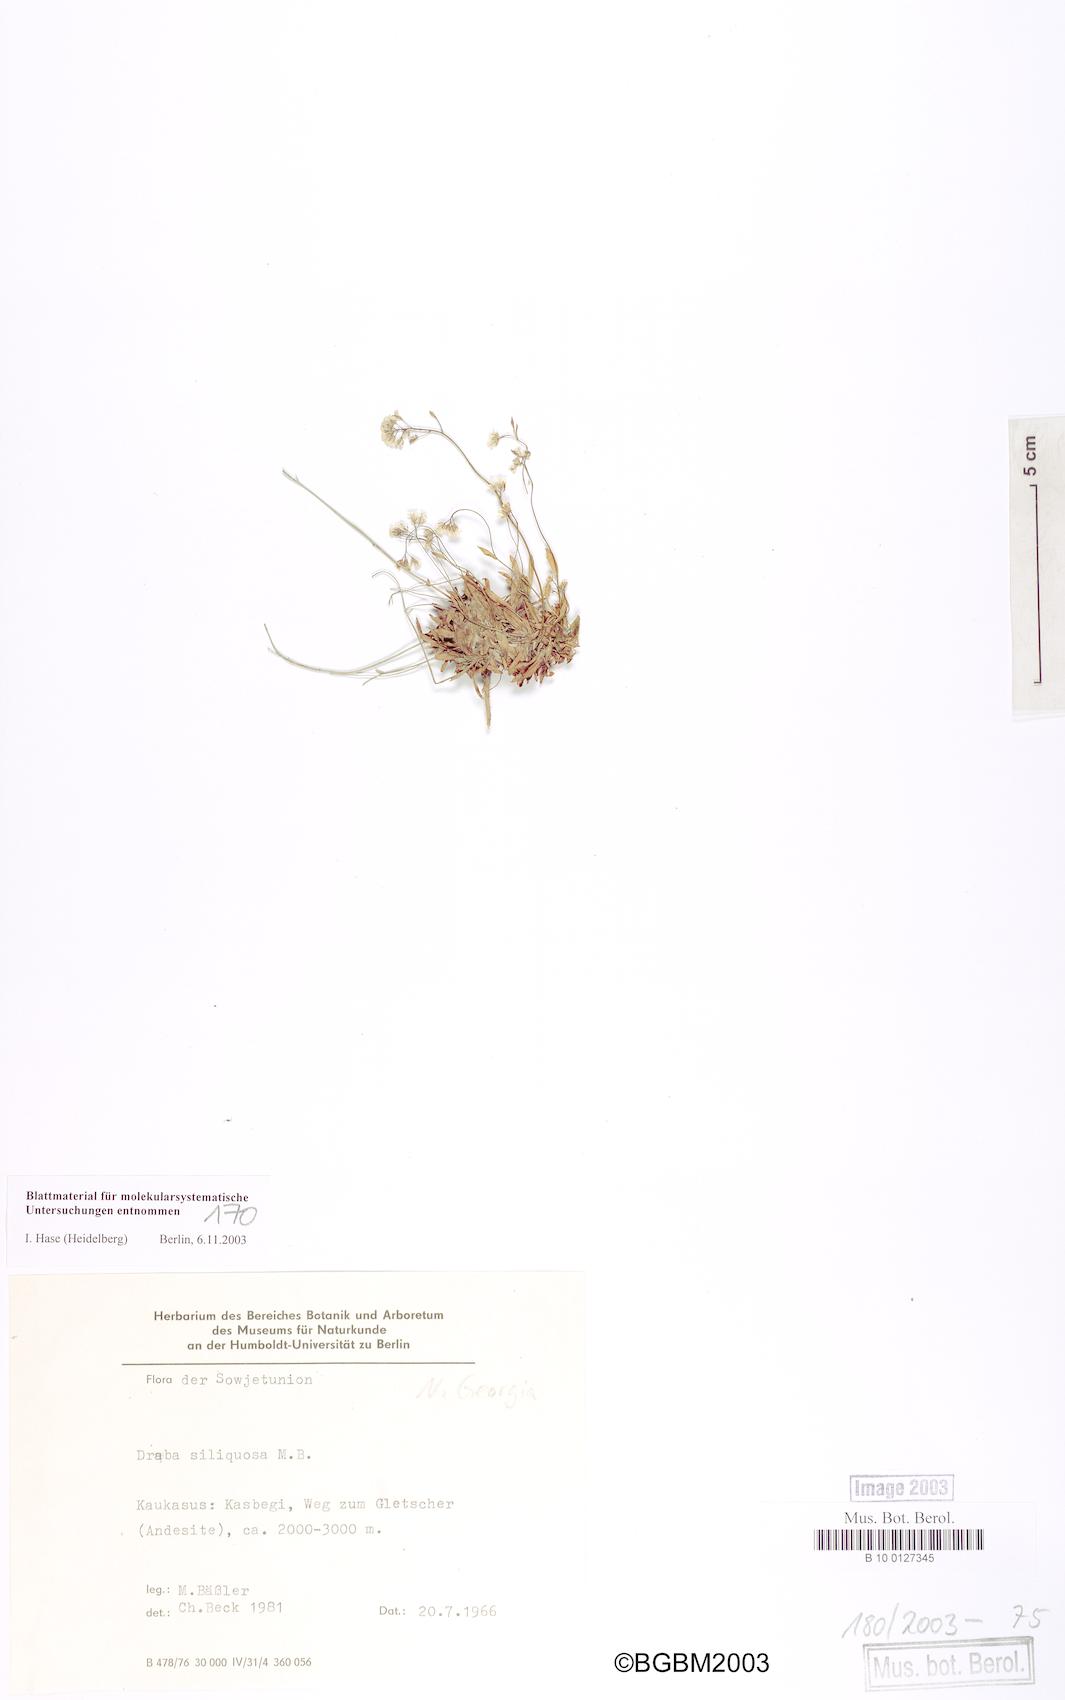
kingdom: Plantae
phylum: Tracheophyta
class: Magnoliopsida
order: Brassicales
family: Brassicaceae
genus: Draba
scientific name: Draba siliquosa
